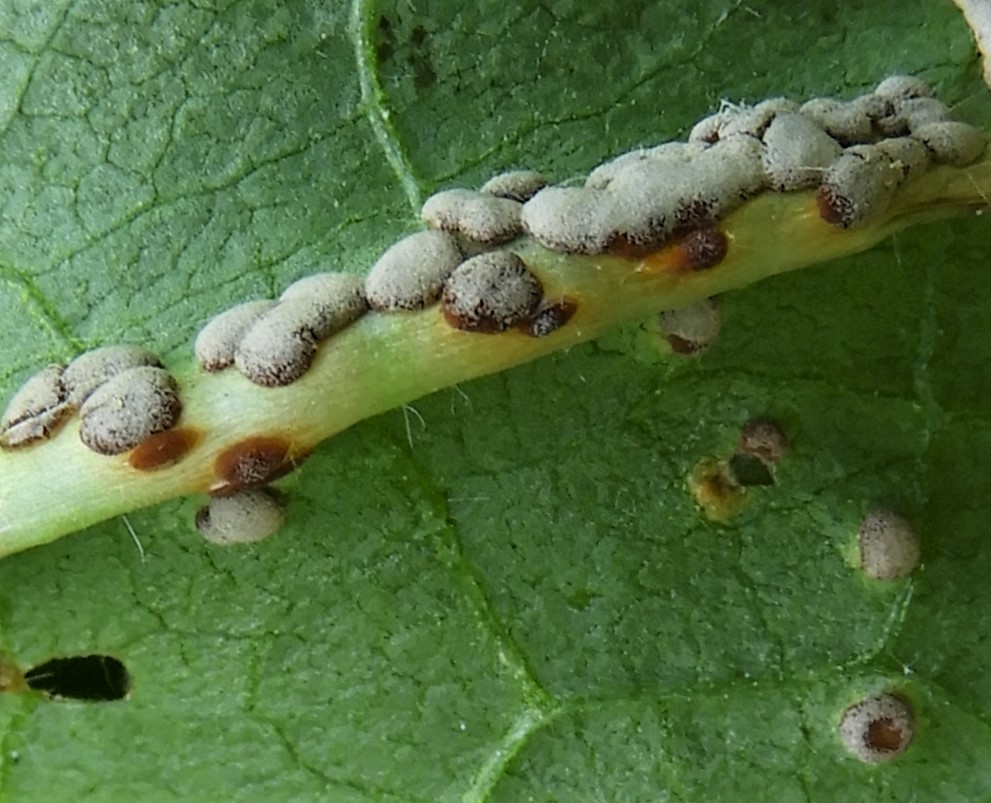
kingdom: Fungi
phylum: Basidiomycota
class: Pucciniomycetes
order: Pucciniales
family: Pucciniaceae
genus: Puccinia
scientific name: Puccinia malvacearum
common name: stokrose-tvecellerust
